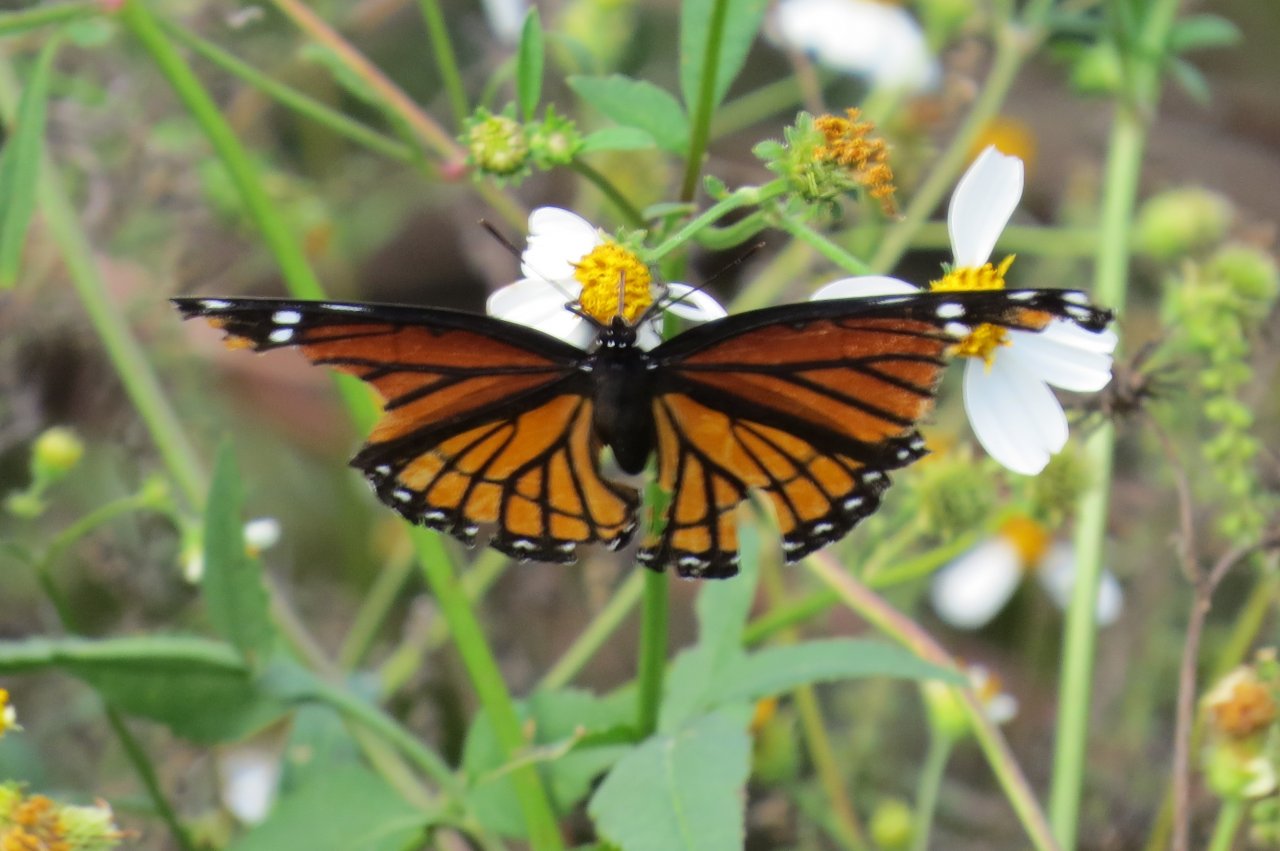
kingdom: Animalia
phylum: Arthropoda
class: Insecta
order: Lepidoptera
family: Nymphalidae
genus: Limenitis
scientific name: Limenitis archippus
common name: Viceroy
